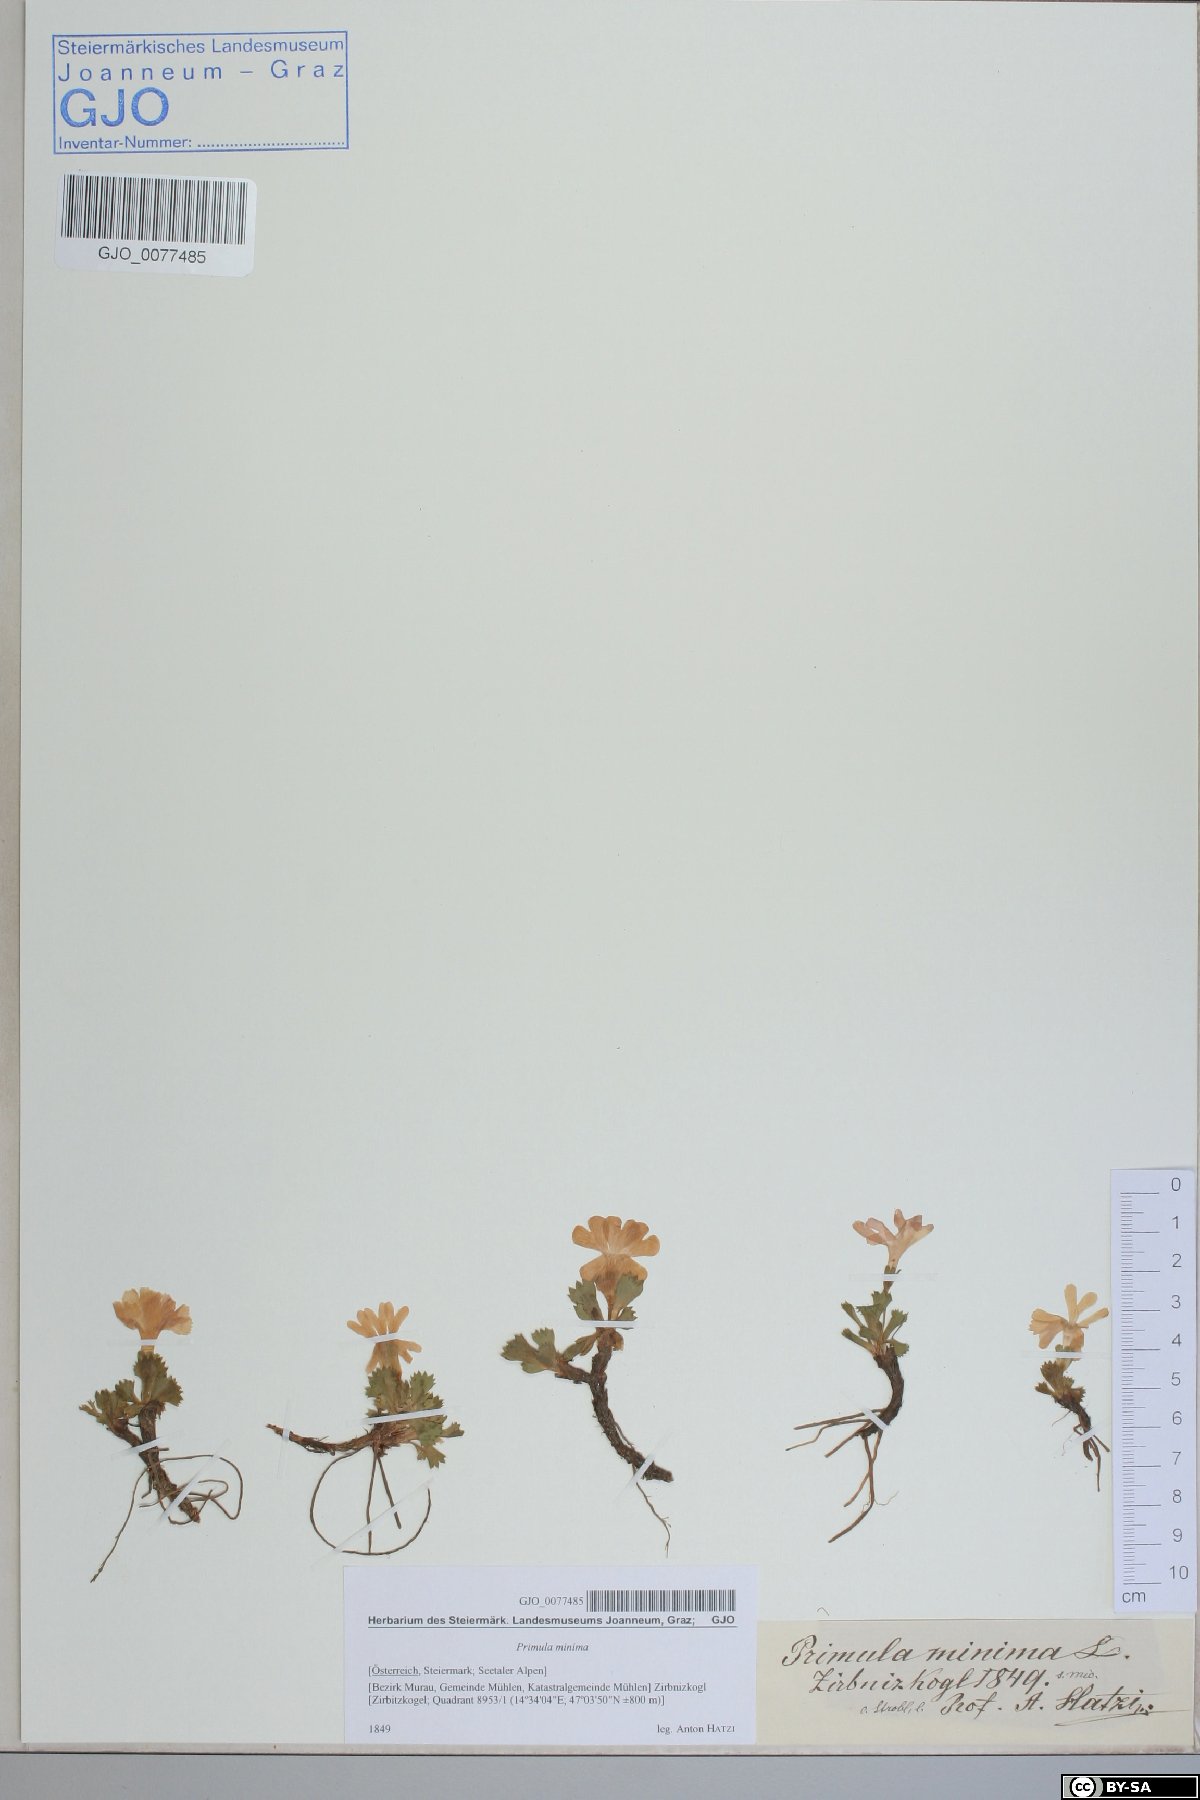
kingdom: Plantae
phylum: Tracheophyta
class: Magnoliopsida
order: Ericales
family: Primulaceae
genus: Primula
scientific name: Primula minima
